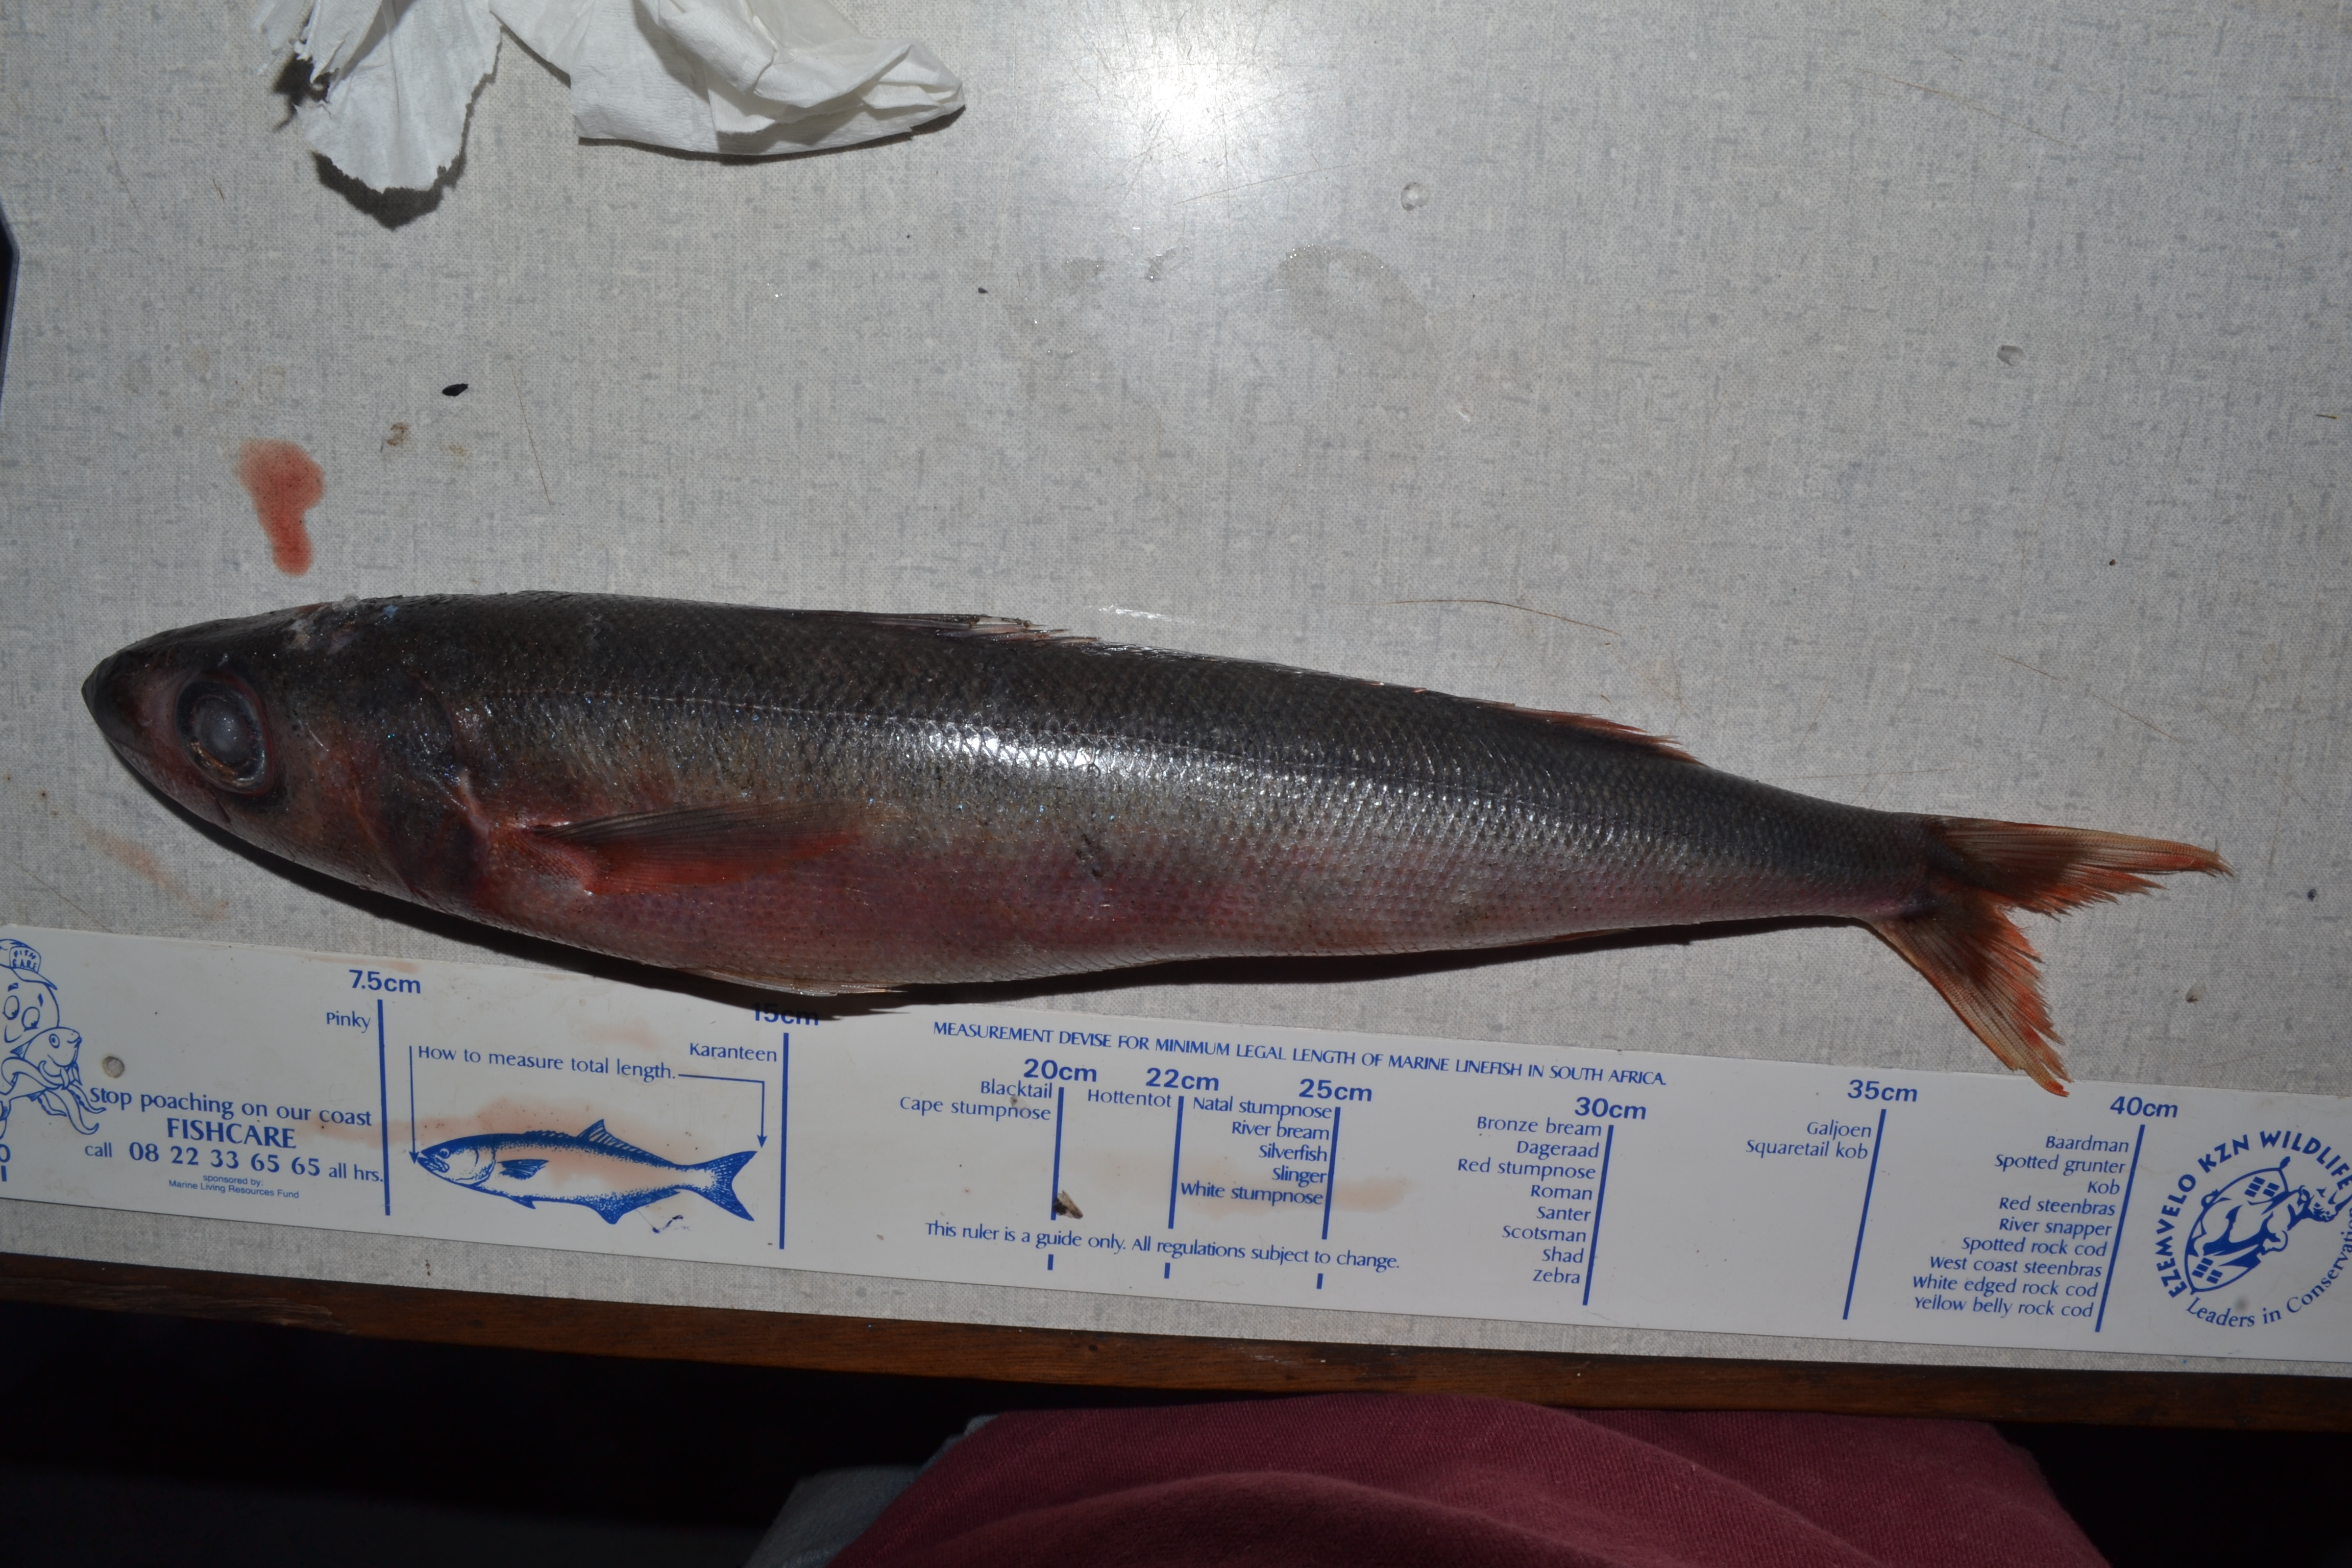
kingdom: Animalia
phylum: Chordata
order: Perciformes
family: Emmelichthyidae
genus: Erythrocles
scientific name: Erythrocles schlegelii
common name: Japanese rubyfish
